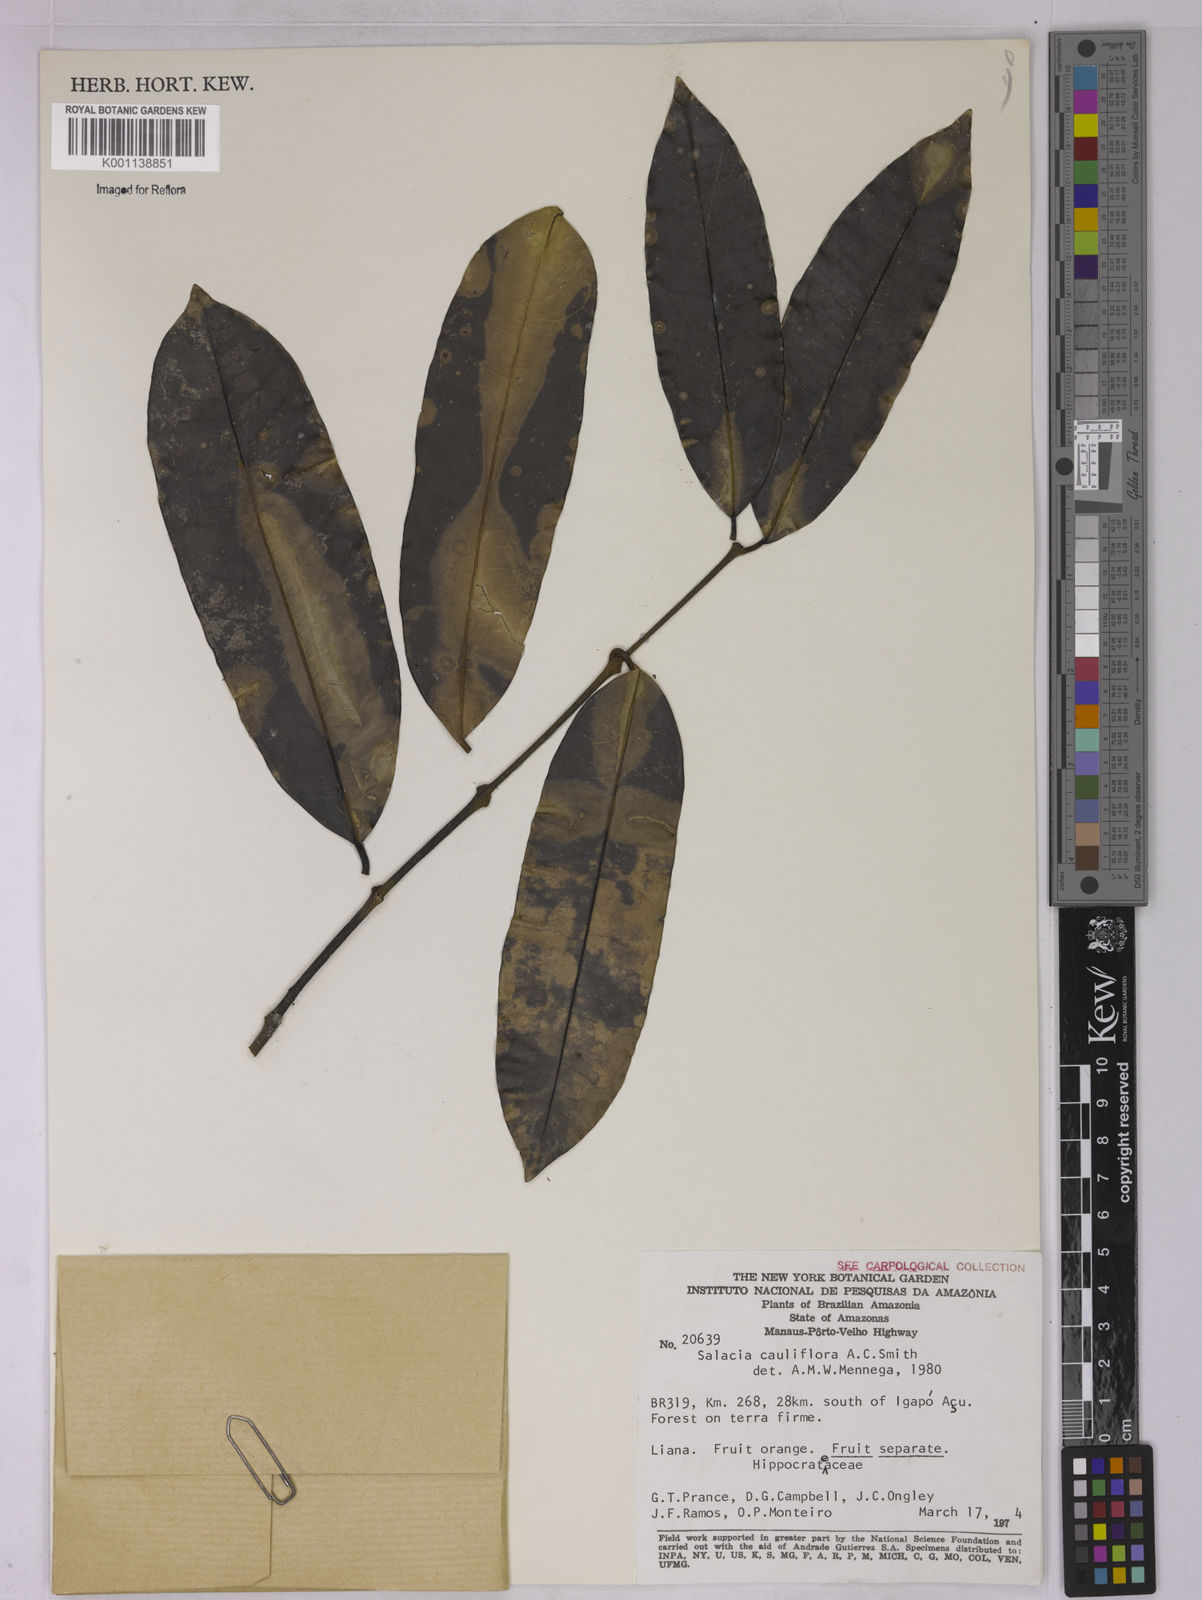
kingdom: Plantae
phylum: Tracheophyta
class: Magnoliopsida
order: Celastrales
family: Celastraceae
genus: Salacia
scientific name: Salacia cauliflora
